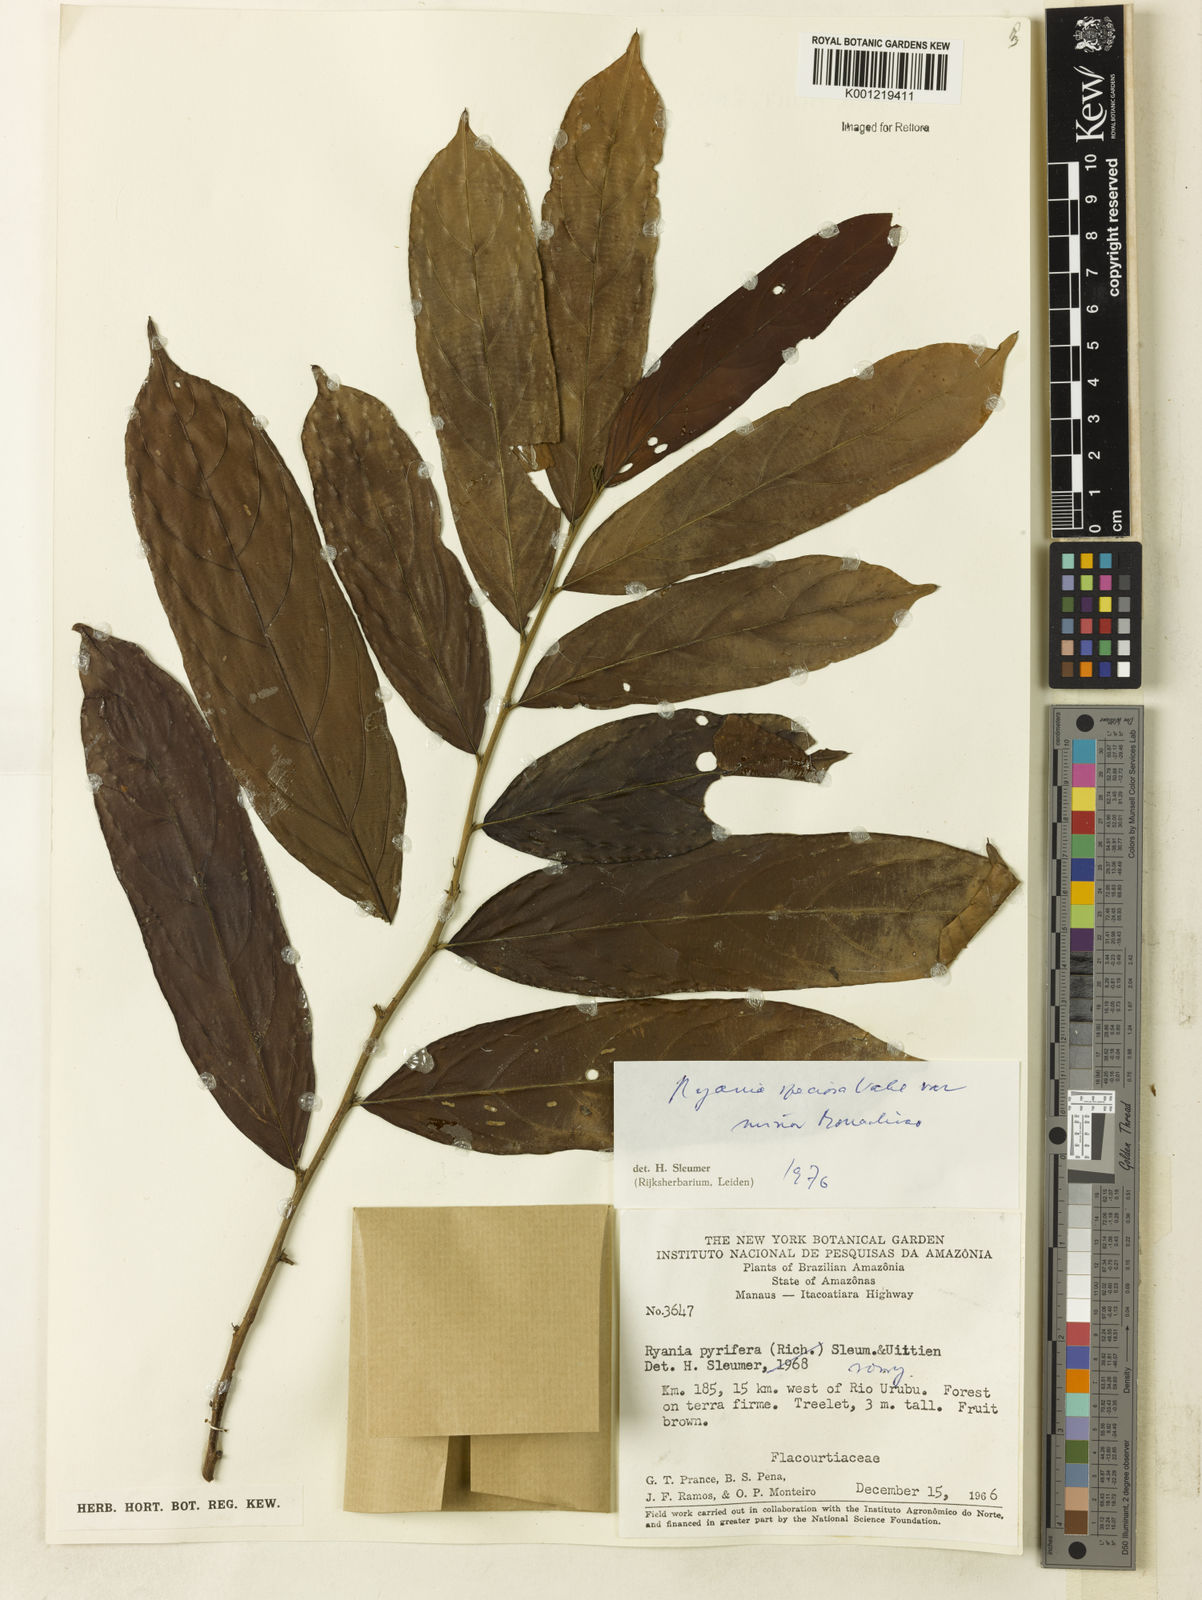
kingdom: Plantae
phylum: Tracheophyta
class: Magnoliopsida
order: Malpighiales
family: Salicaceae
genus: Ryania
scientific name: Ryania speciosa
